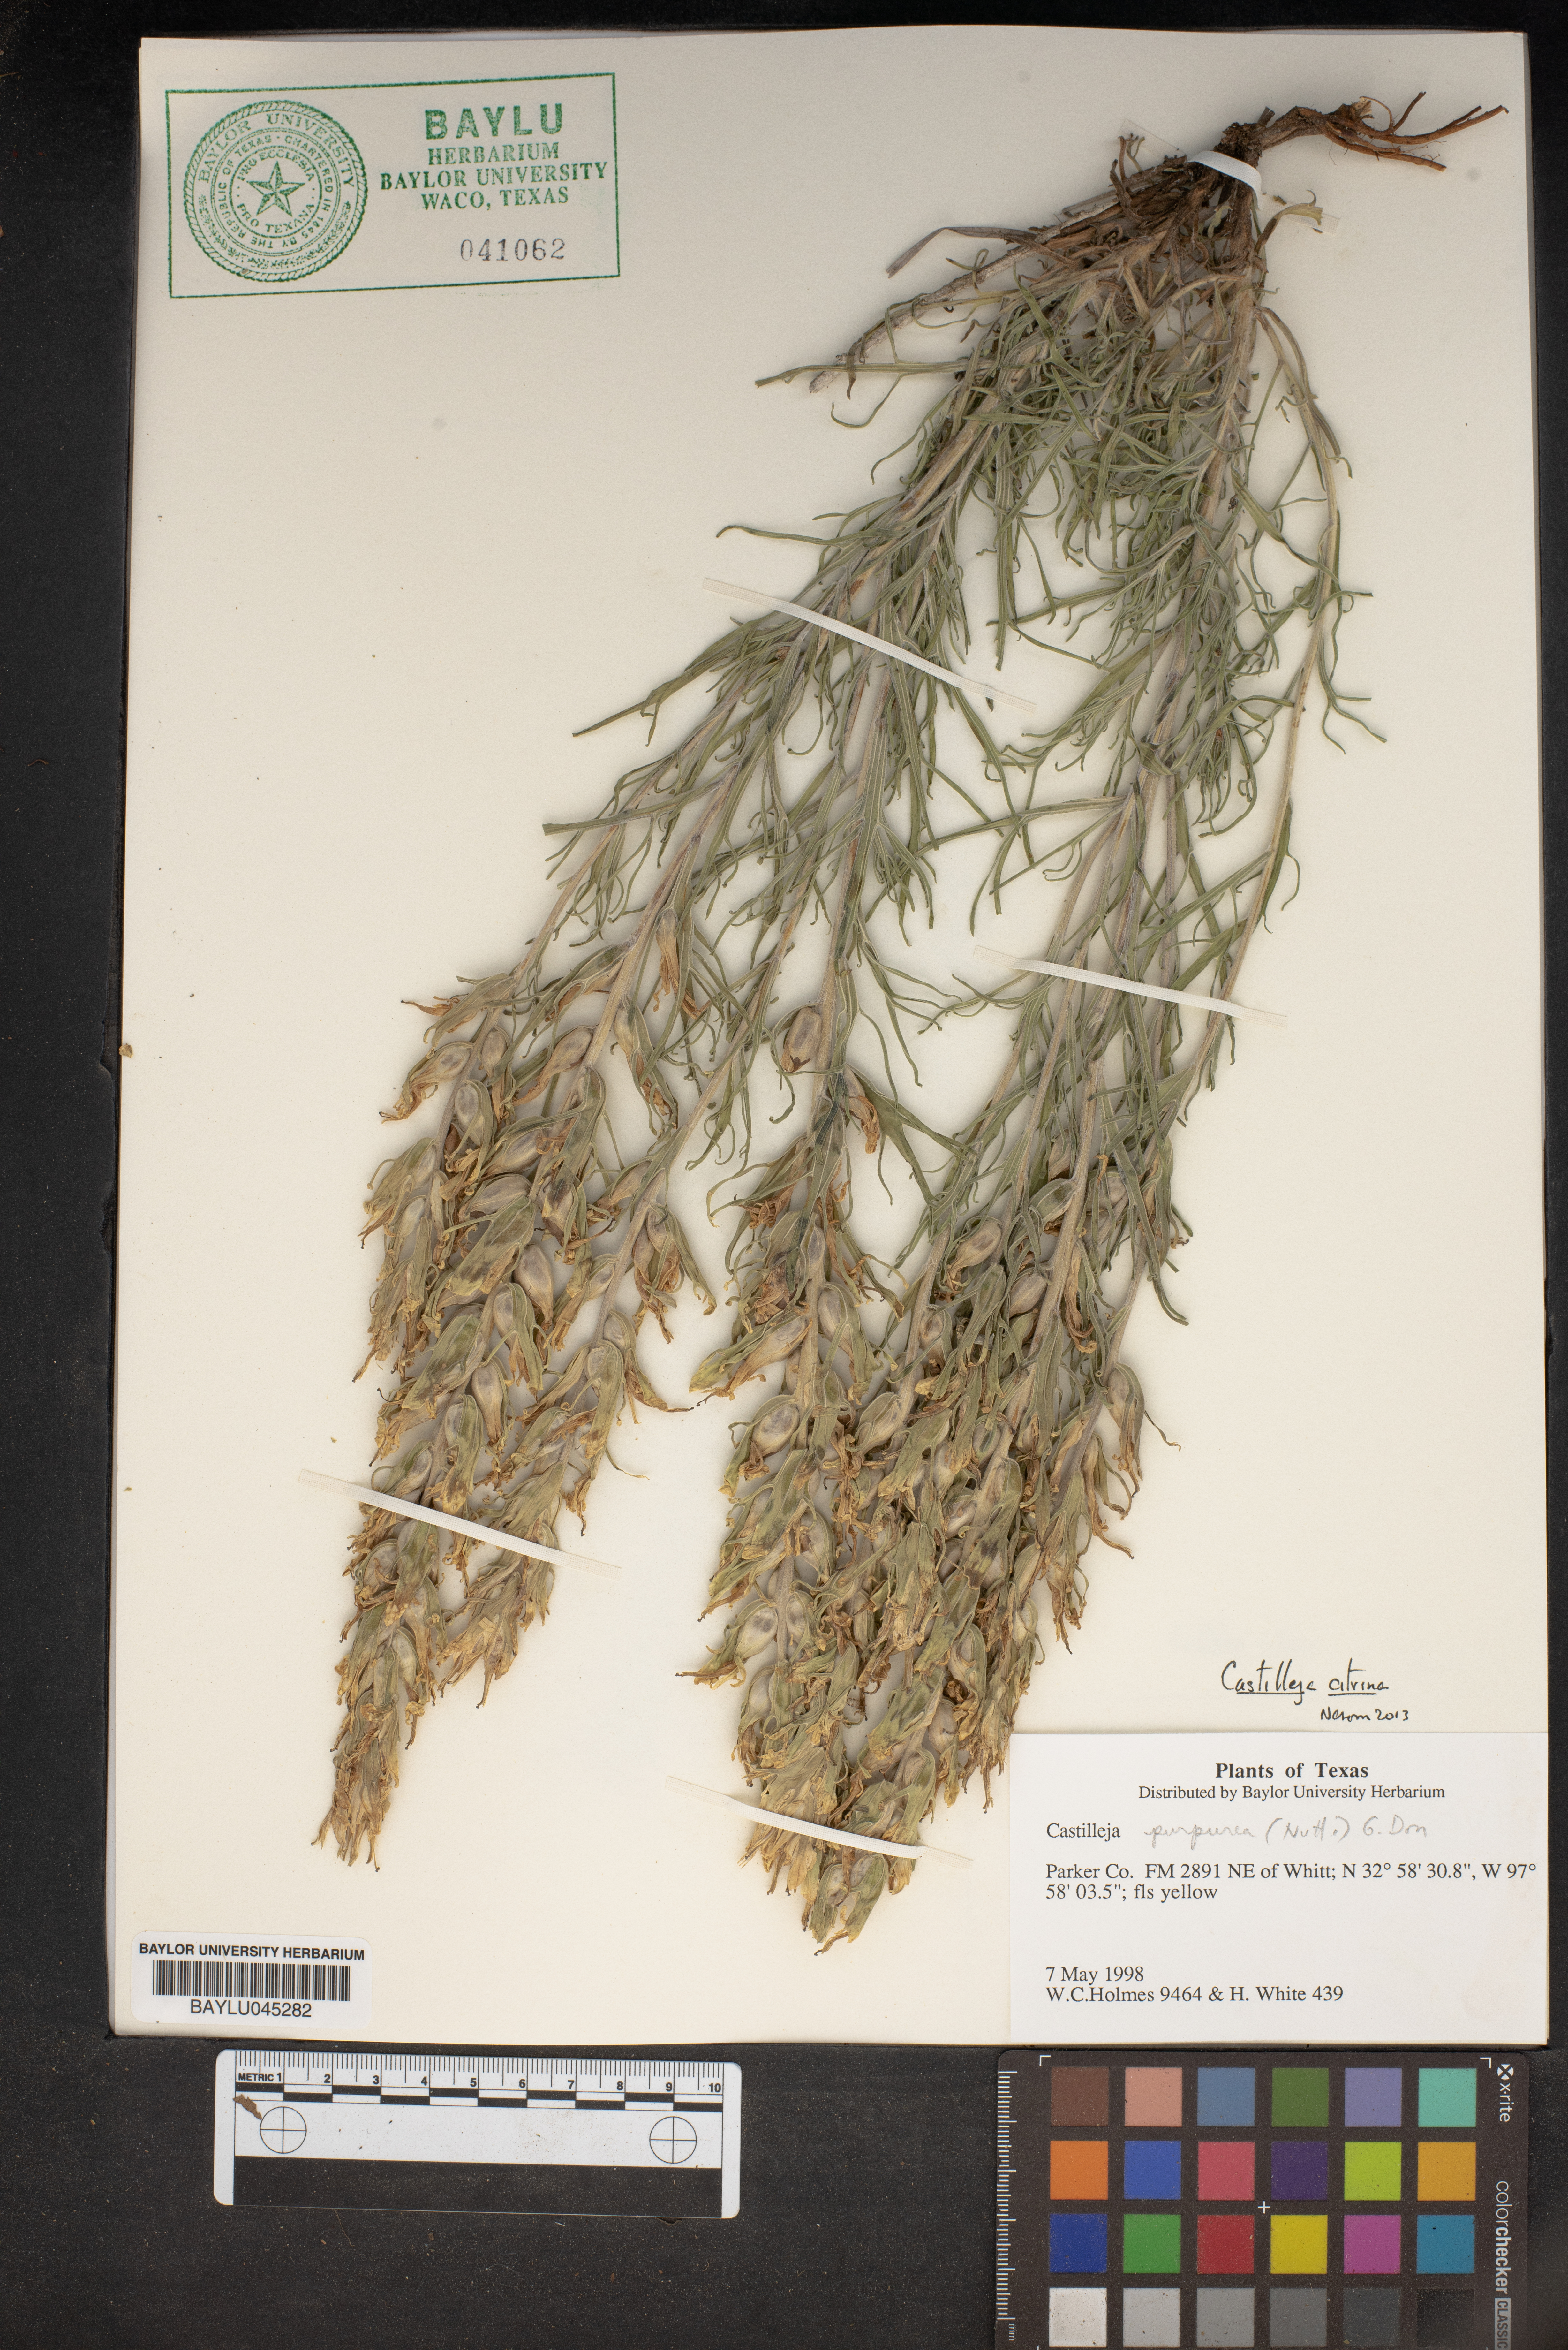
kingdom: Plantae
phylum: Tracheophyta
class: Magnoliopsida
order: Lamiales
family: Orobanchaceae
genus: Castilleja
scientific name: Castilleja purpurea
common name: Plains paintbrush
